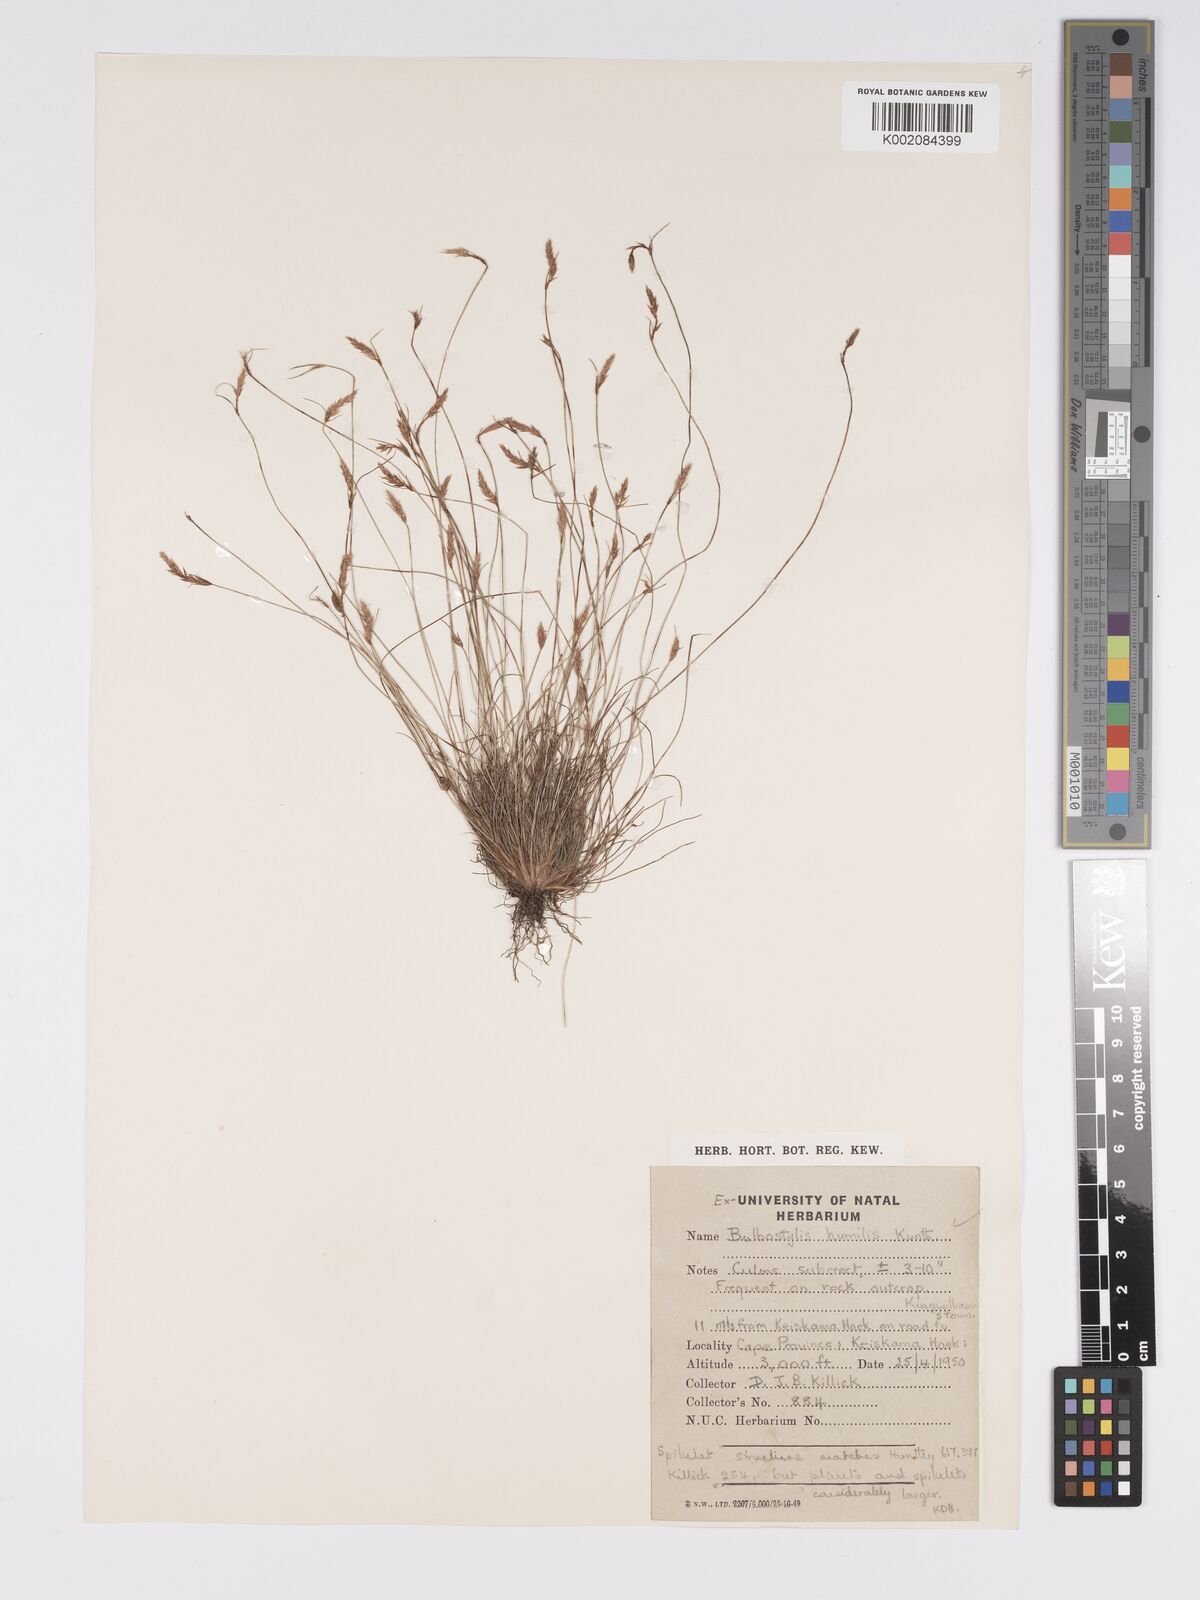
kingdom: Plantae
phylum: Tracheophyta
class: Liliopsida
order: Poales
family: Cyperaceae
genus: Bulbostylis
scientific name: Bulbostylis humilis
